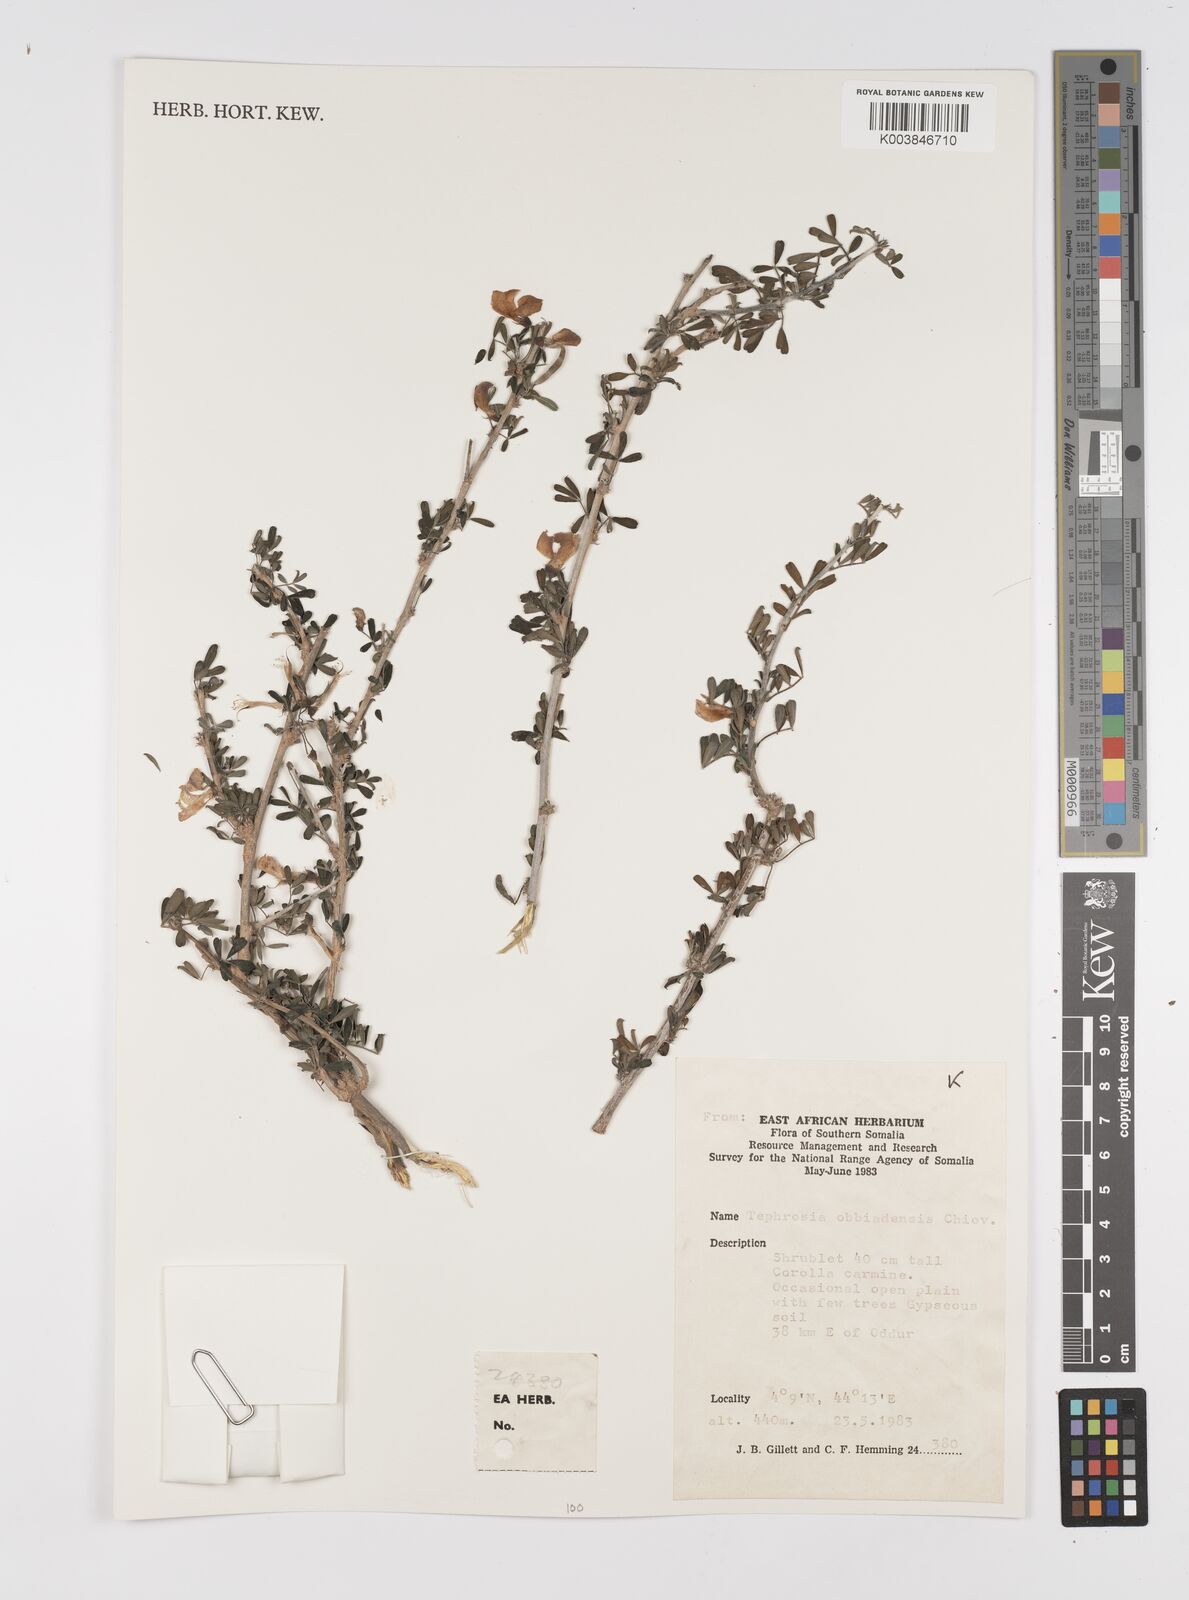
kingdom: Plantae
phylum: Tracheophyta
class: Magnoliopsida
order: Fabales
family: Fabaceae
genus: Tephrosia
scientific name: Tephrosia obbiadensis
